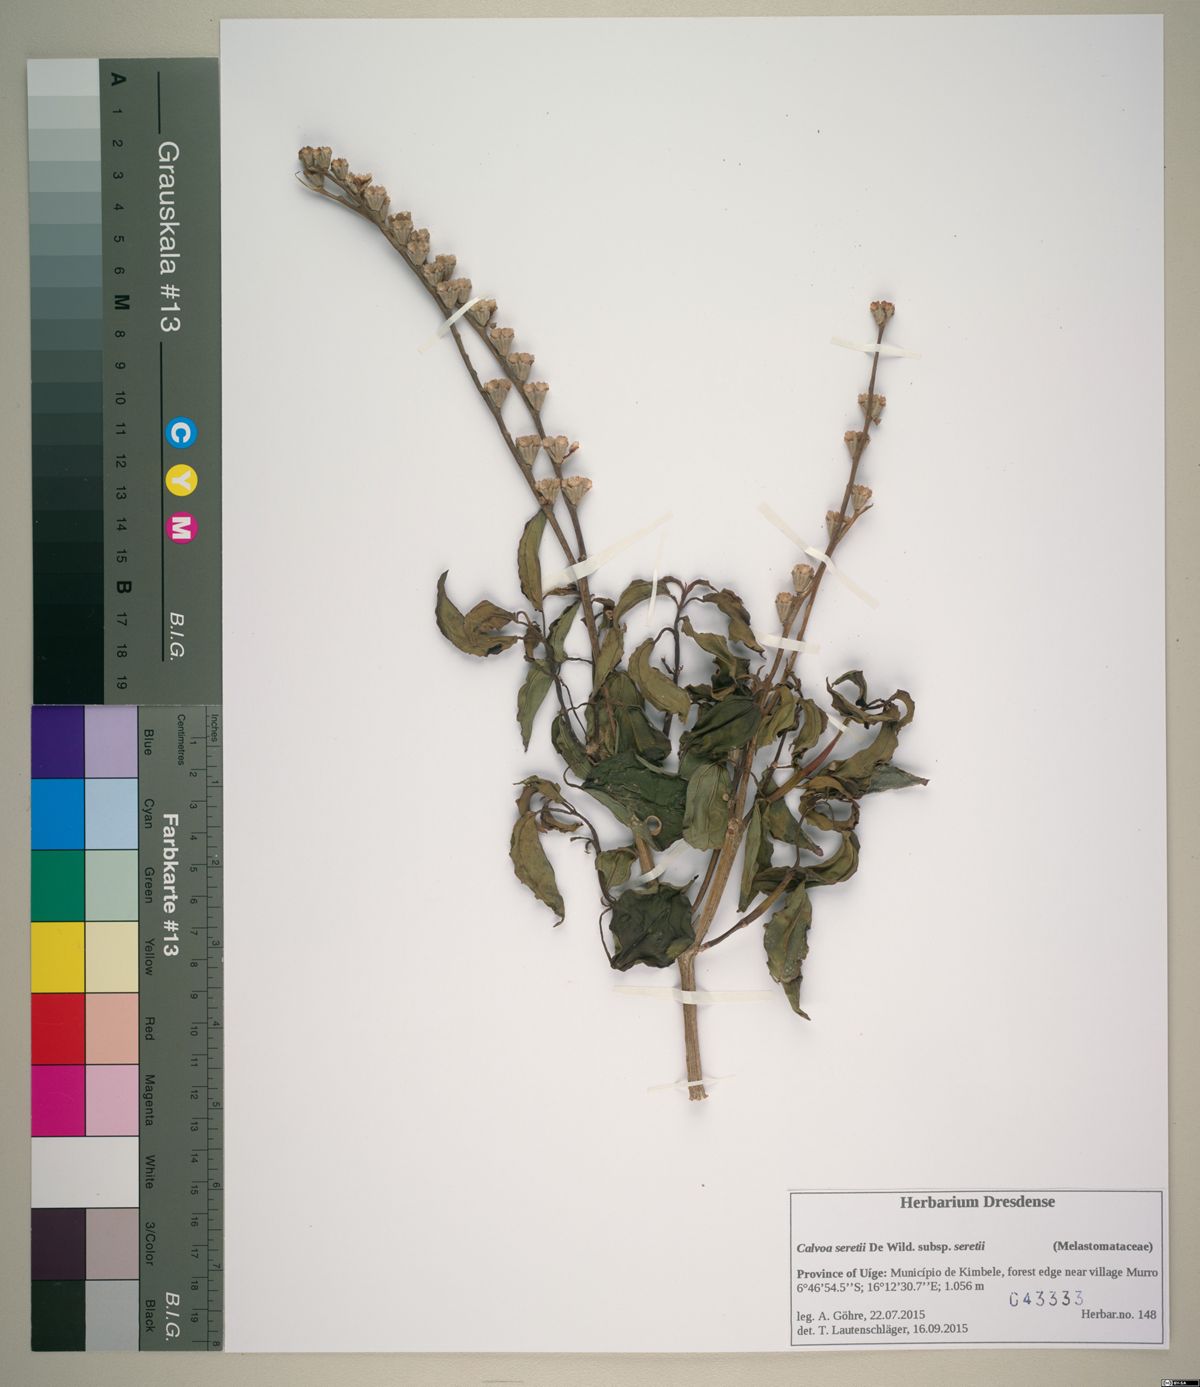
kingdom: Plantae
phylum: Tracheophyta
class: Magnoliopsida
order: Myrtales
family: Melastomataceae
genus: Calvoa
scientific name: Calvoa angolensis
